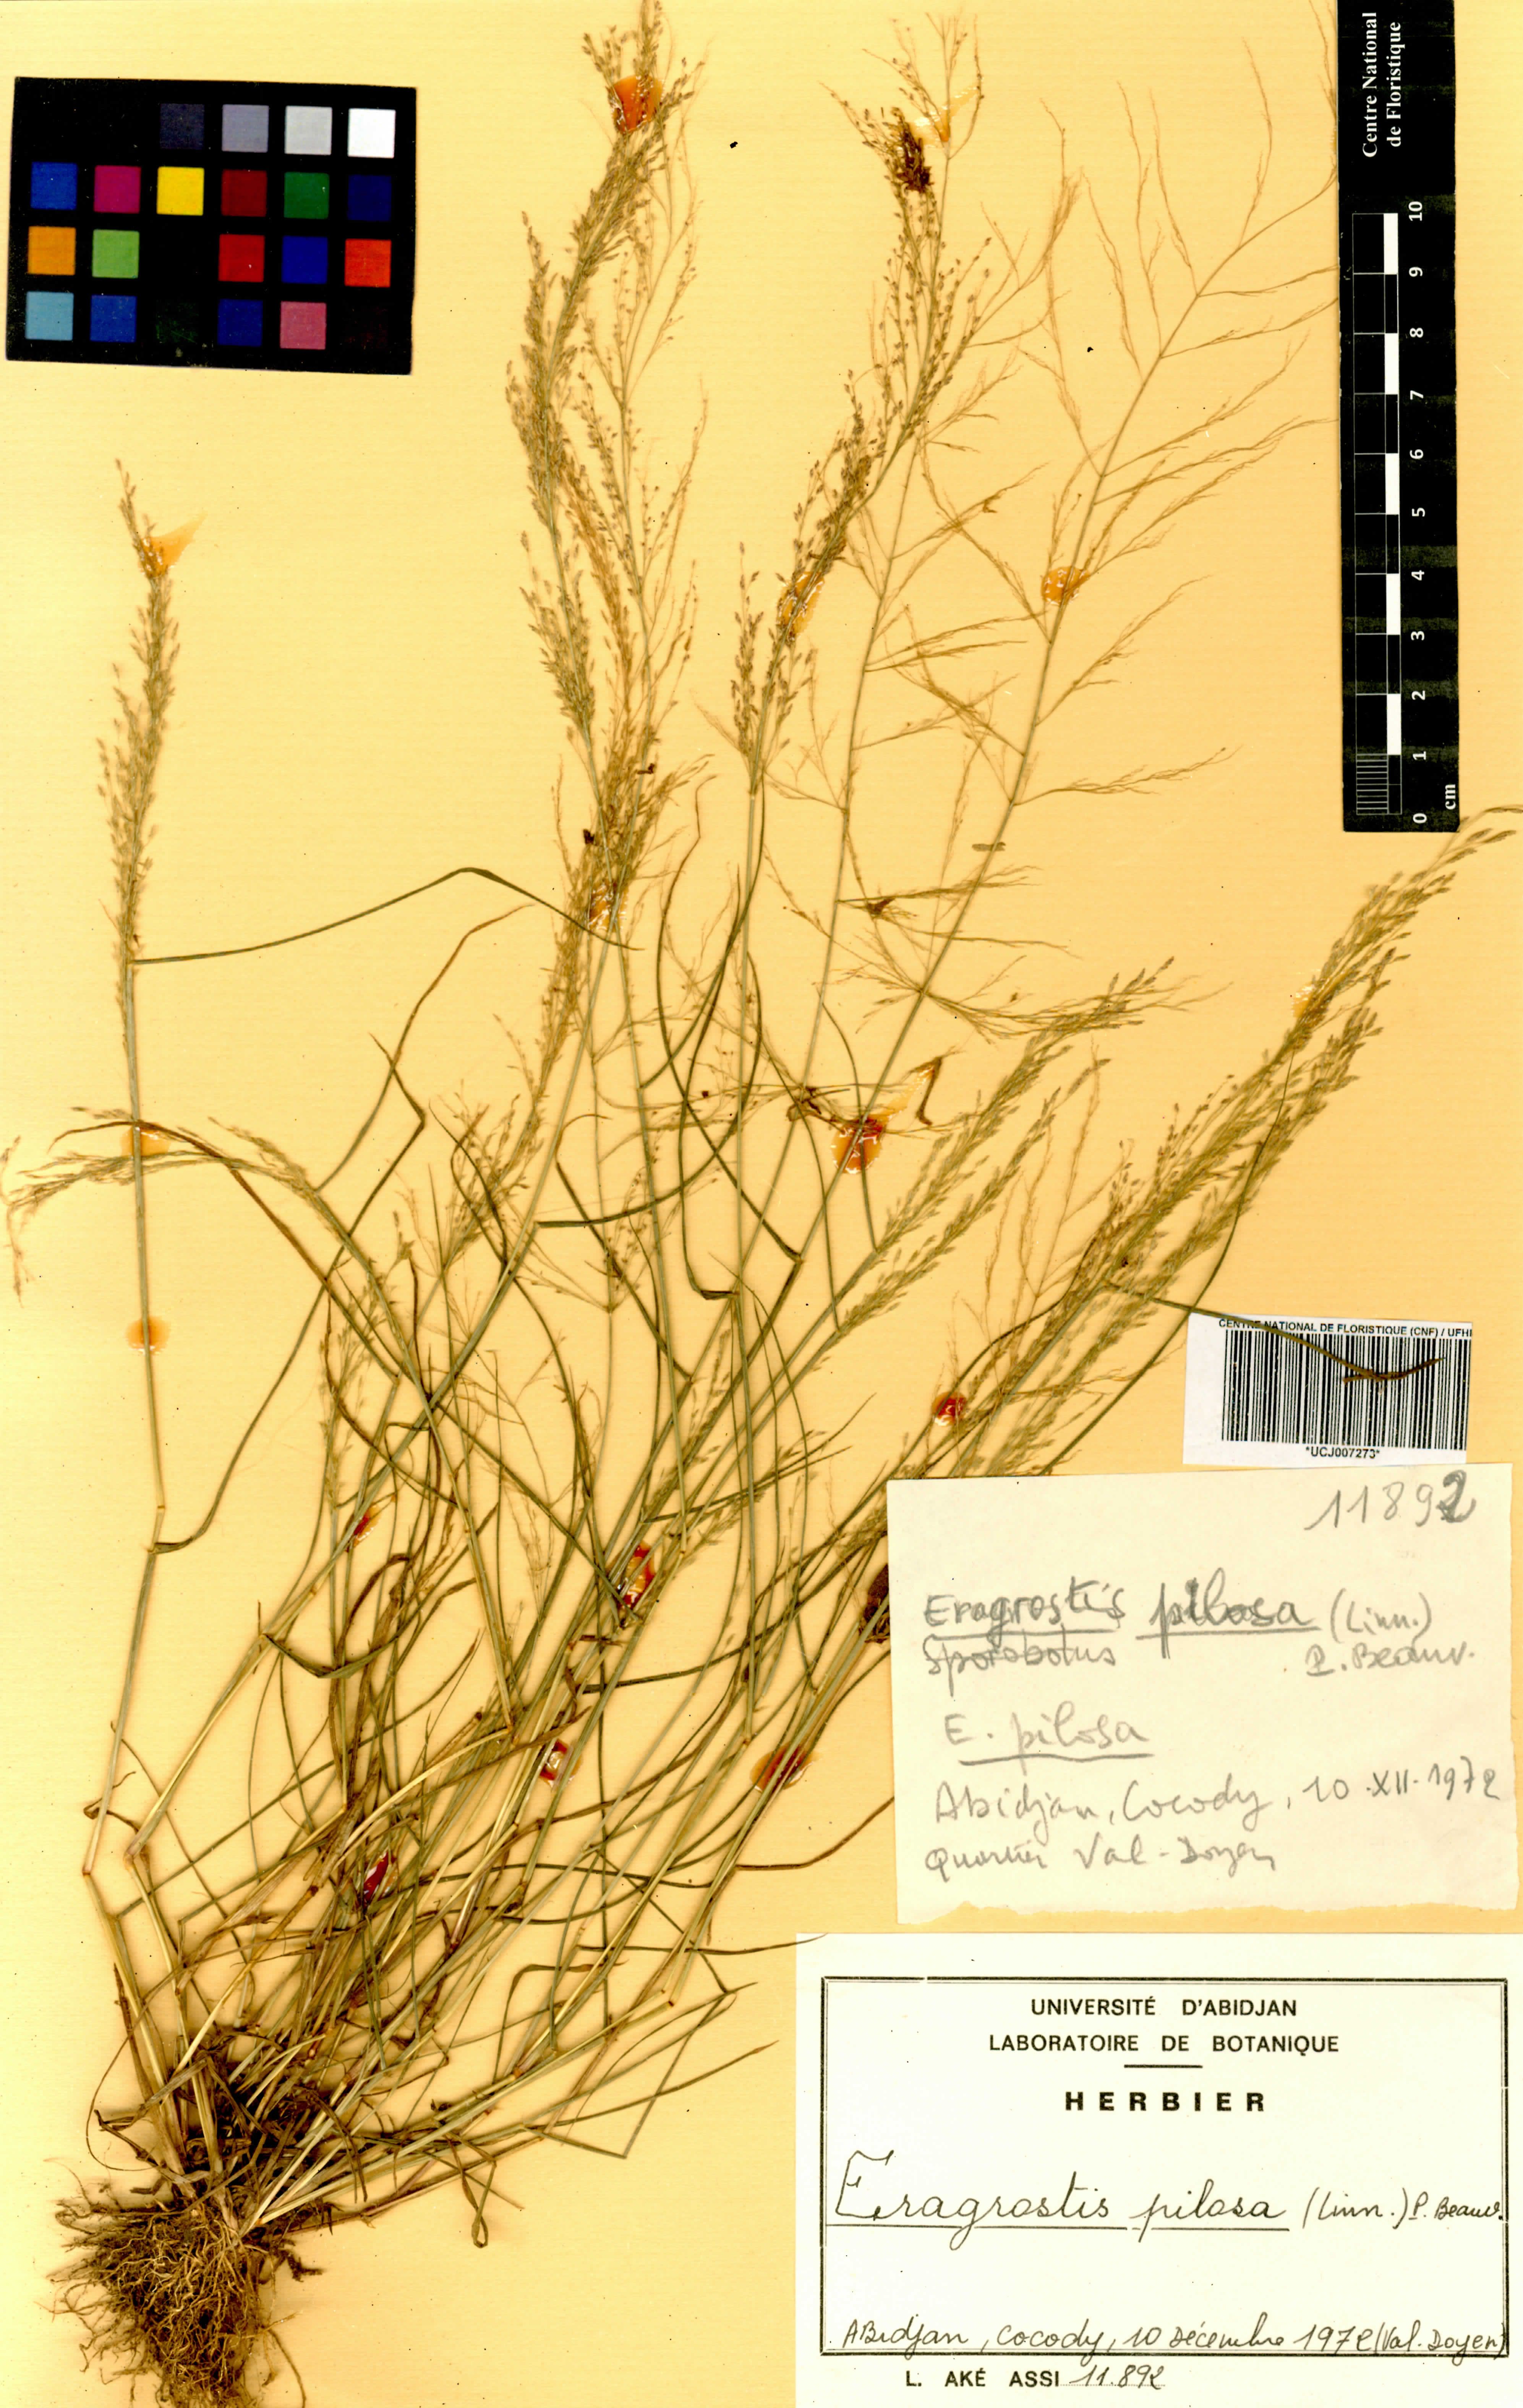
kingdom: Plantae
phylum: Tracheophyta
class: Liliopsida
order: Poales
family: Poaceae
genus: Eragrostis
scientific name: Eragrostis pilosa
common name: Indian lovegrass
